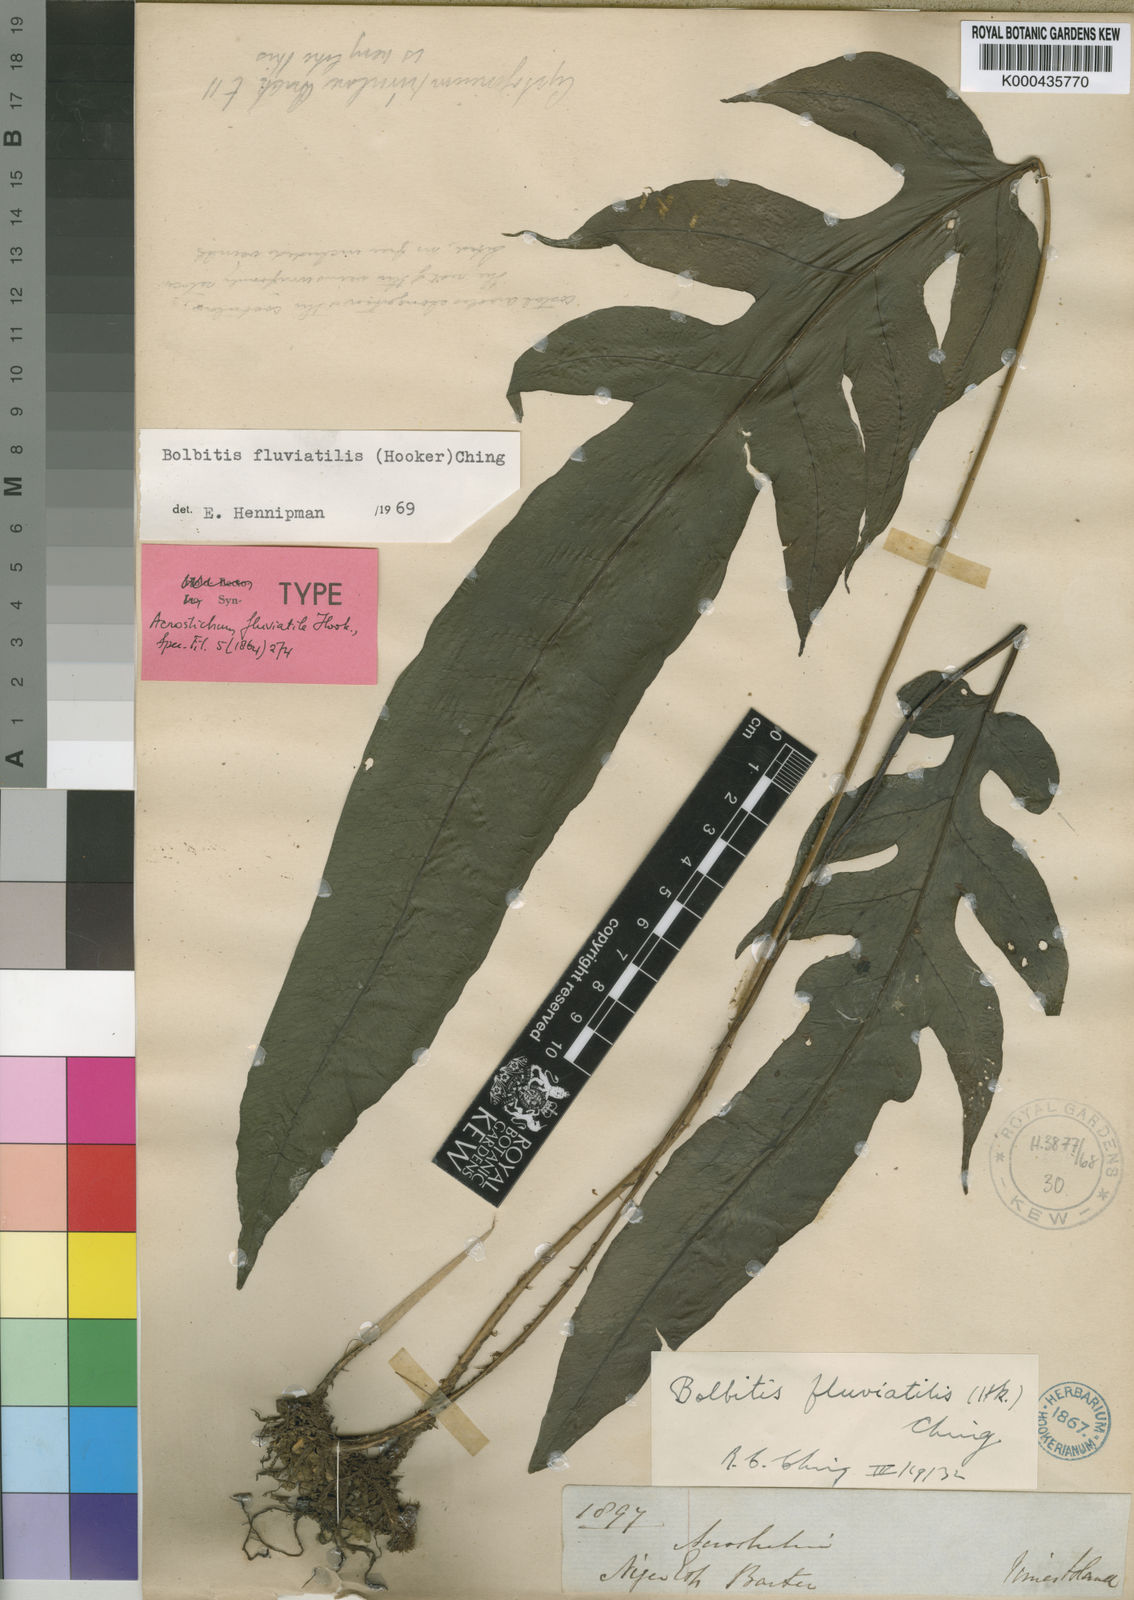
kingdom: Plantae
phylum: Tracheophyta
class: Polypodiopsida
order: Polypodiales
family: Dryopteridaceae
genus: Bolbitis
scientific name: Bolbitis fluviatilis
